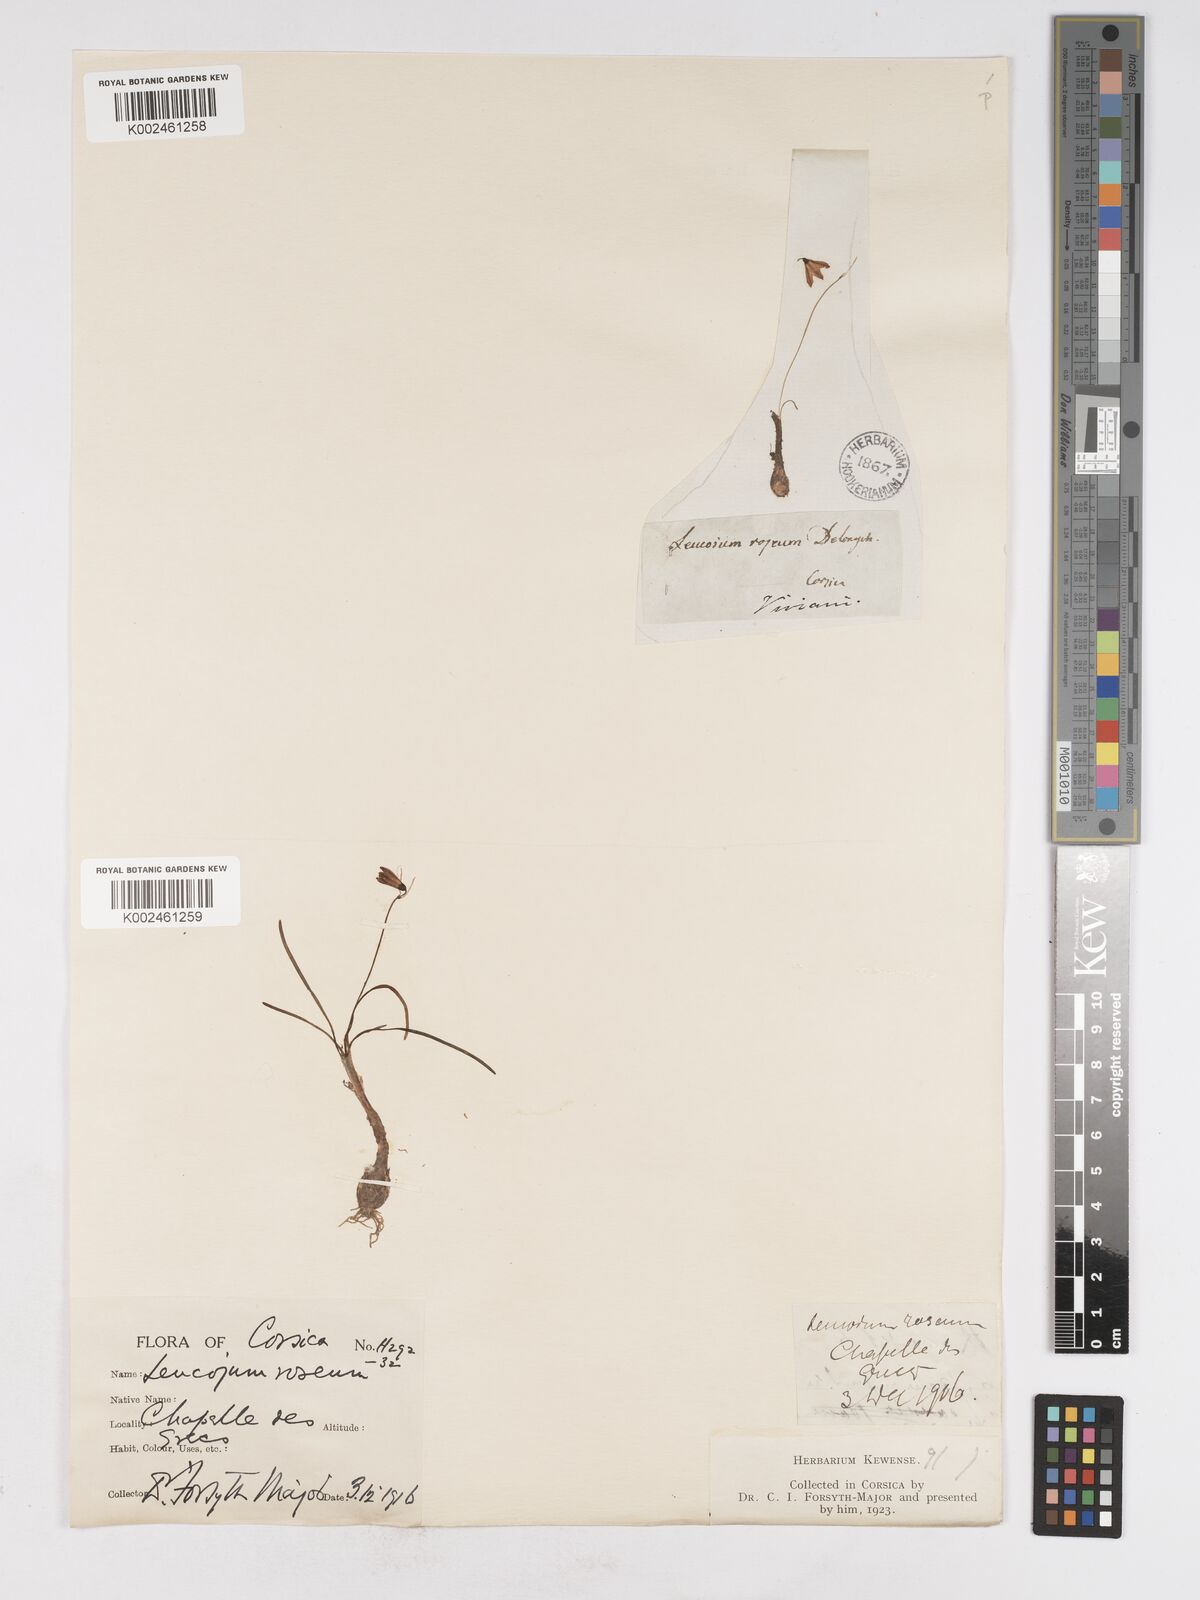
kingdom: Plantae
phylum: Tracheophyta
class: Liliopsida
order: Asparagales
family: Amaryllidaceae
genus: Acis
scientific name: Acis rosea
